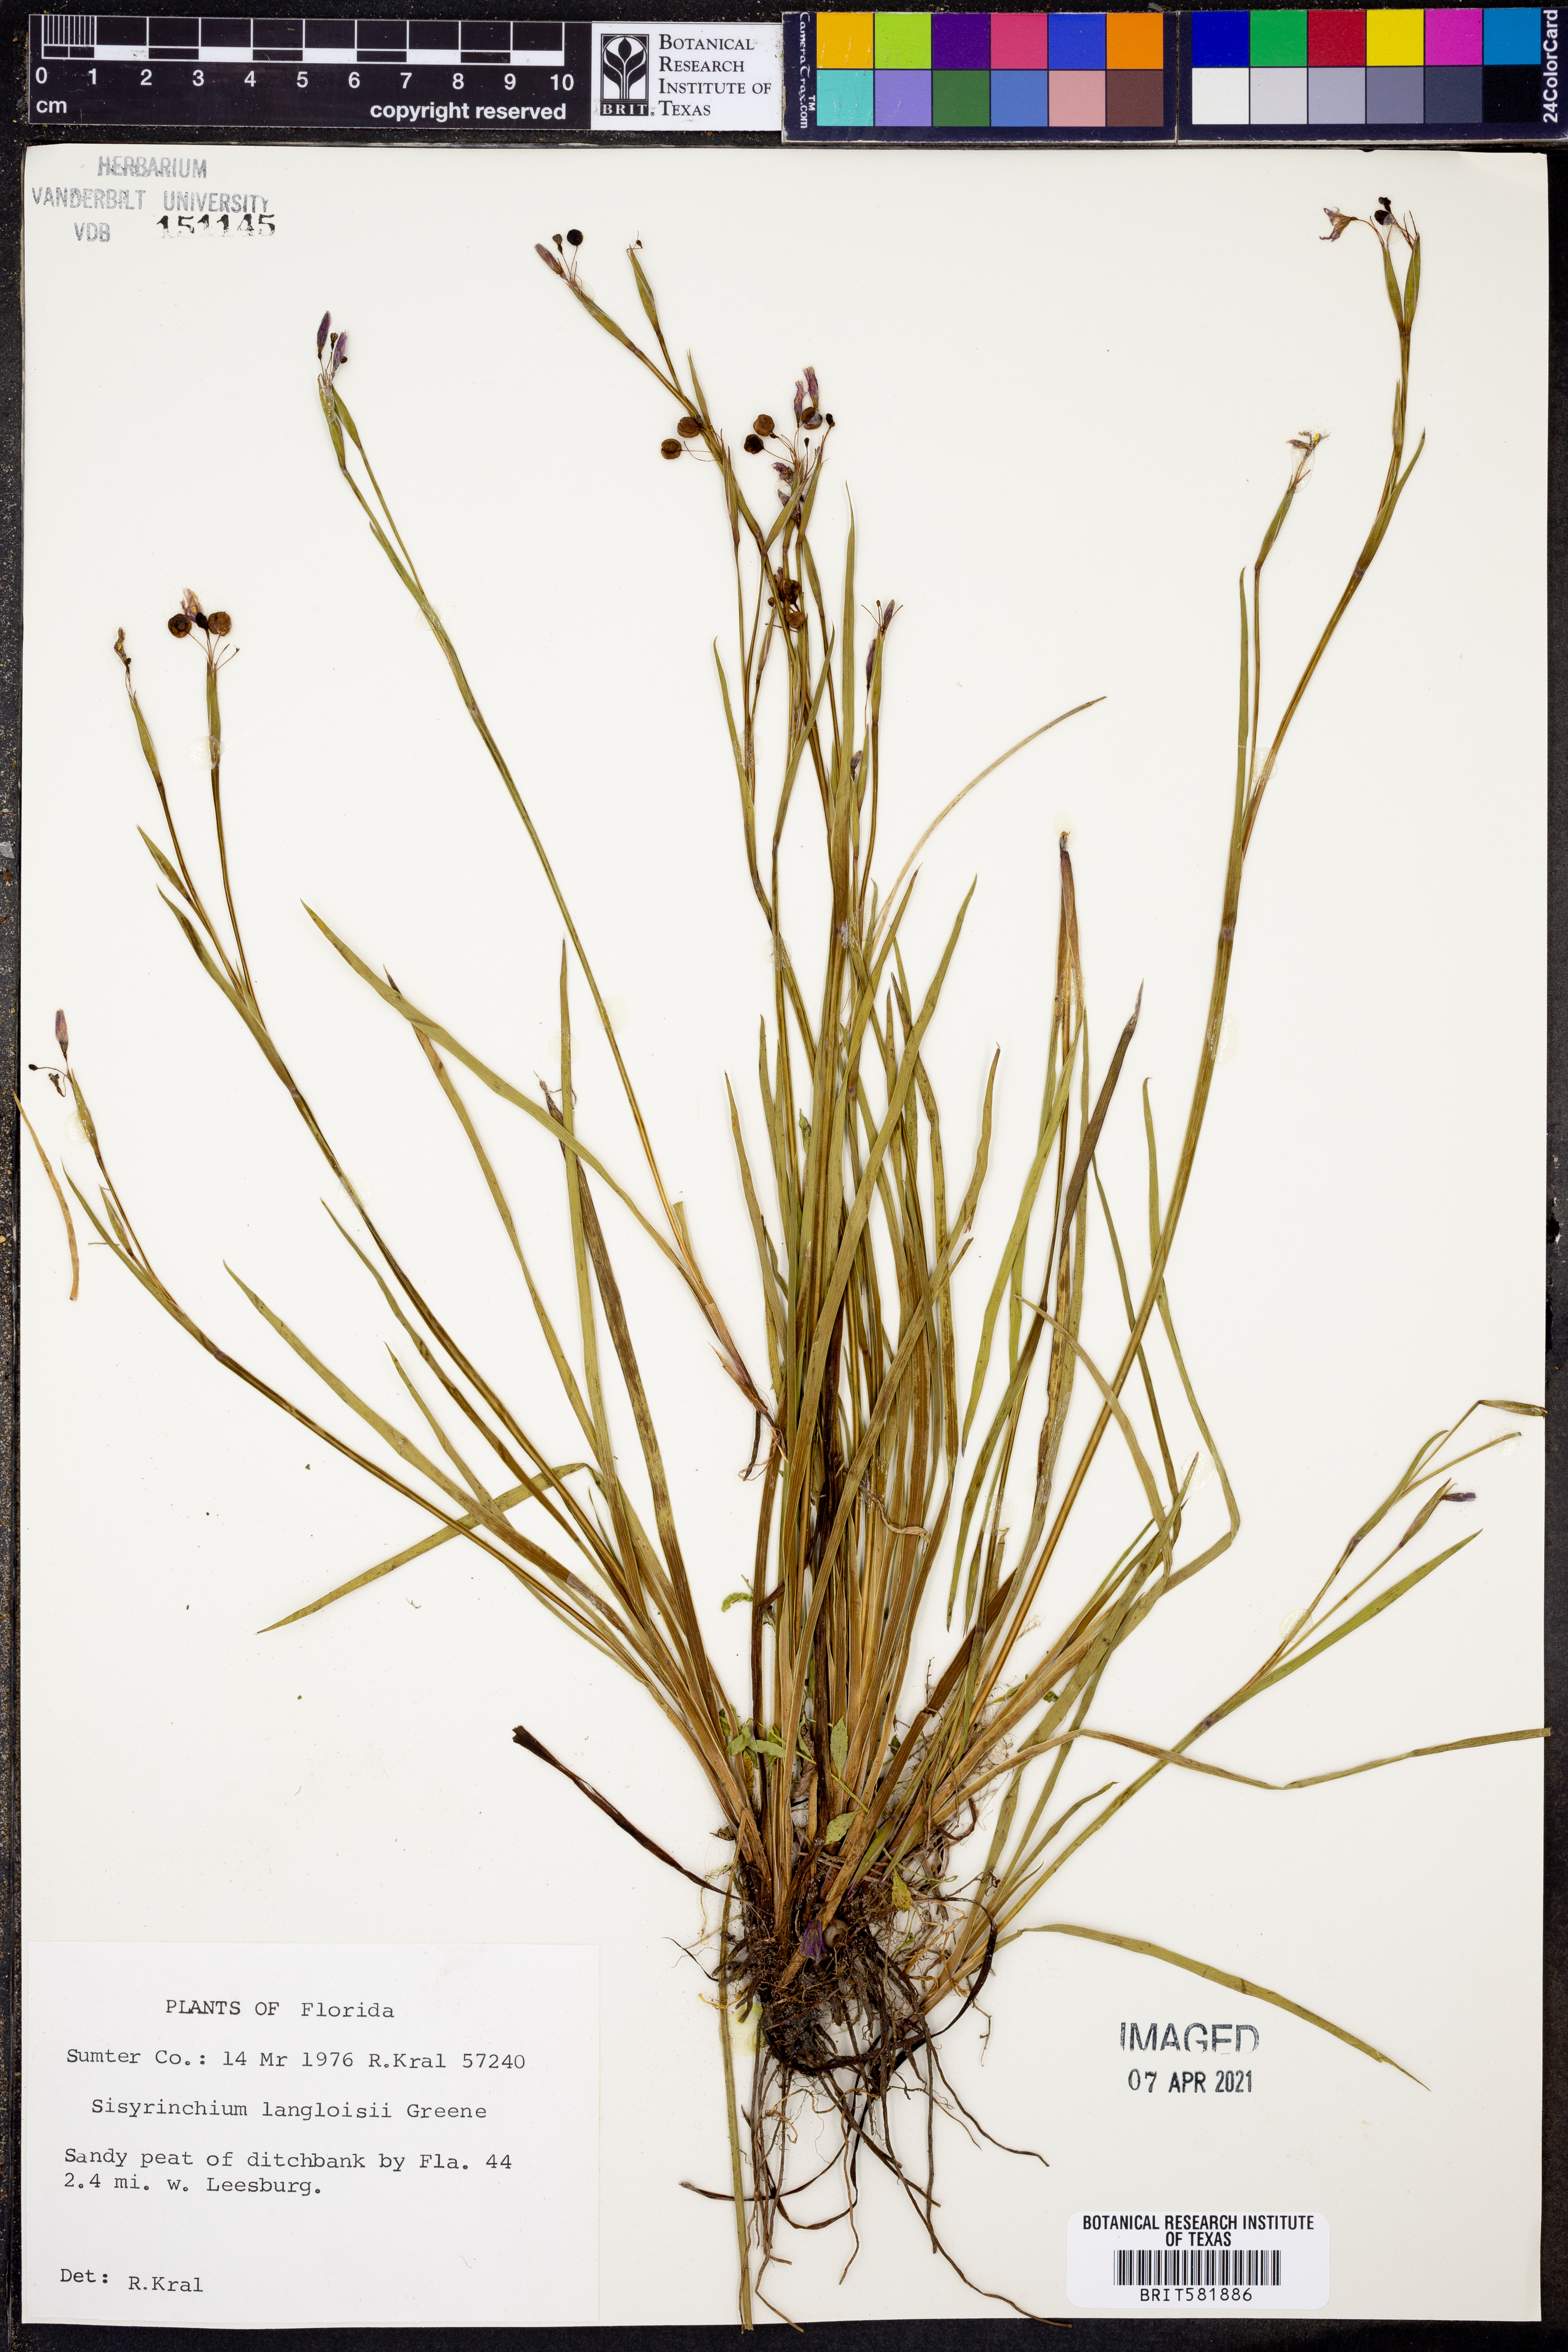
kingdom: Plantae
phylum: Tracheophyta
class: Liliopsida
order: Asparagales
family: Iridaceae
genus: Sisyrinchium
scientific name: Sisyrinchium langloisii
